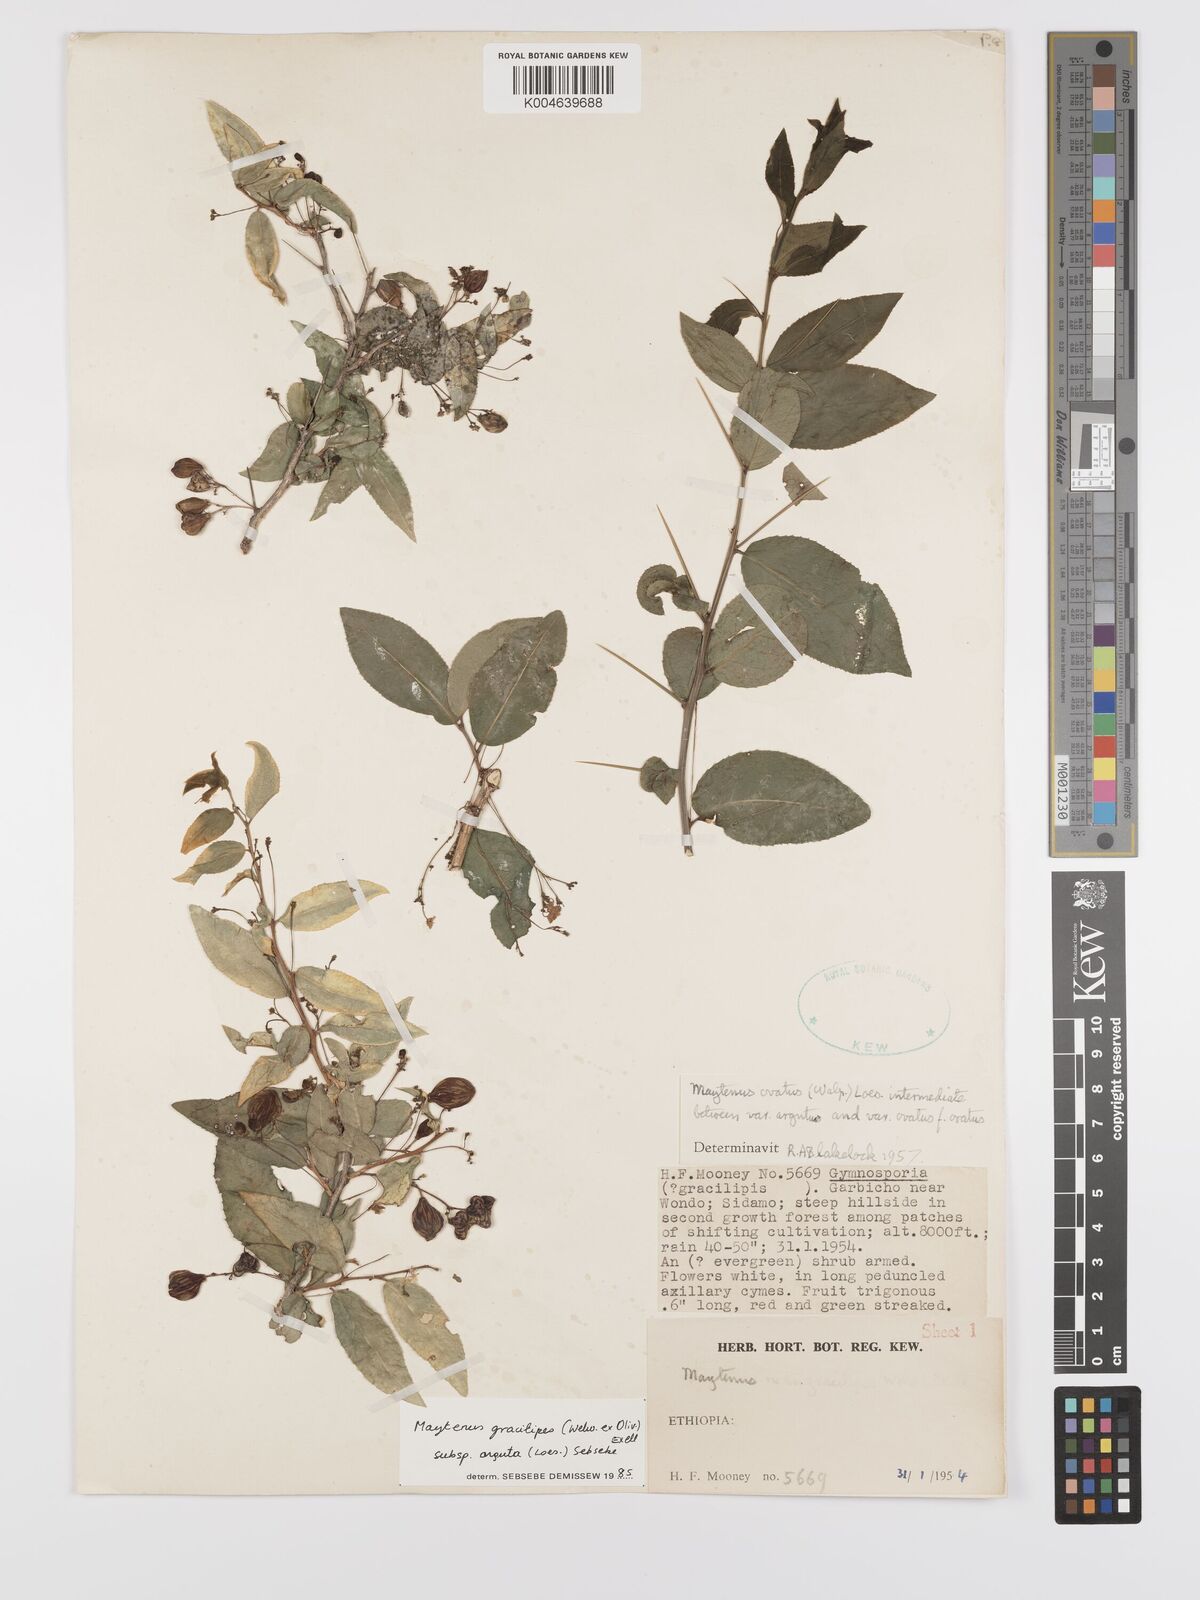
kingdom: Plantae
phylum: Tracheophyta
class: Magnoliopsida
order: Celastrales
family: Celastraceae
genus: Gymnosporia
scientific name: Gymnosporia gracilipes
